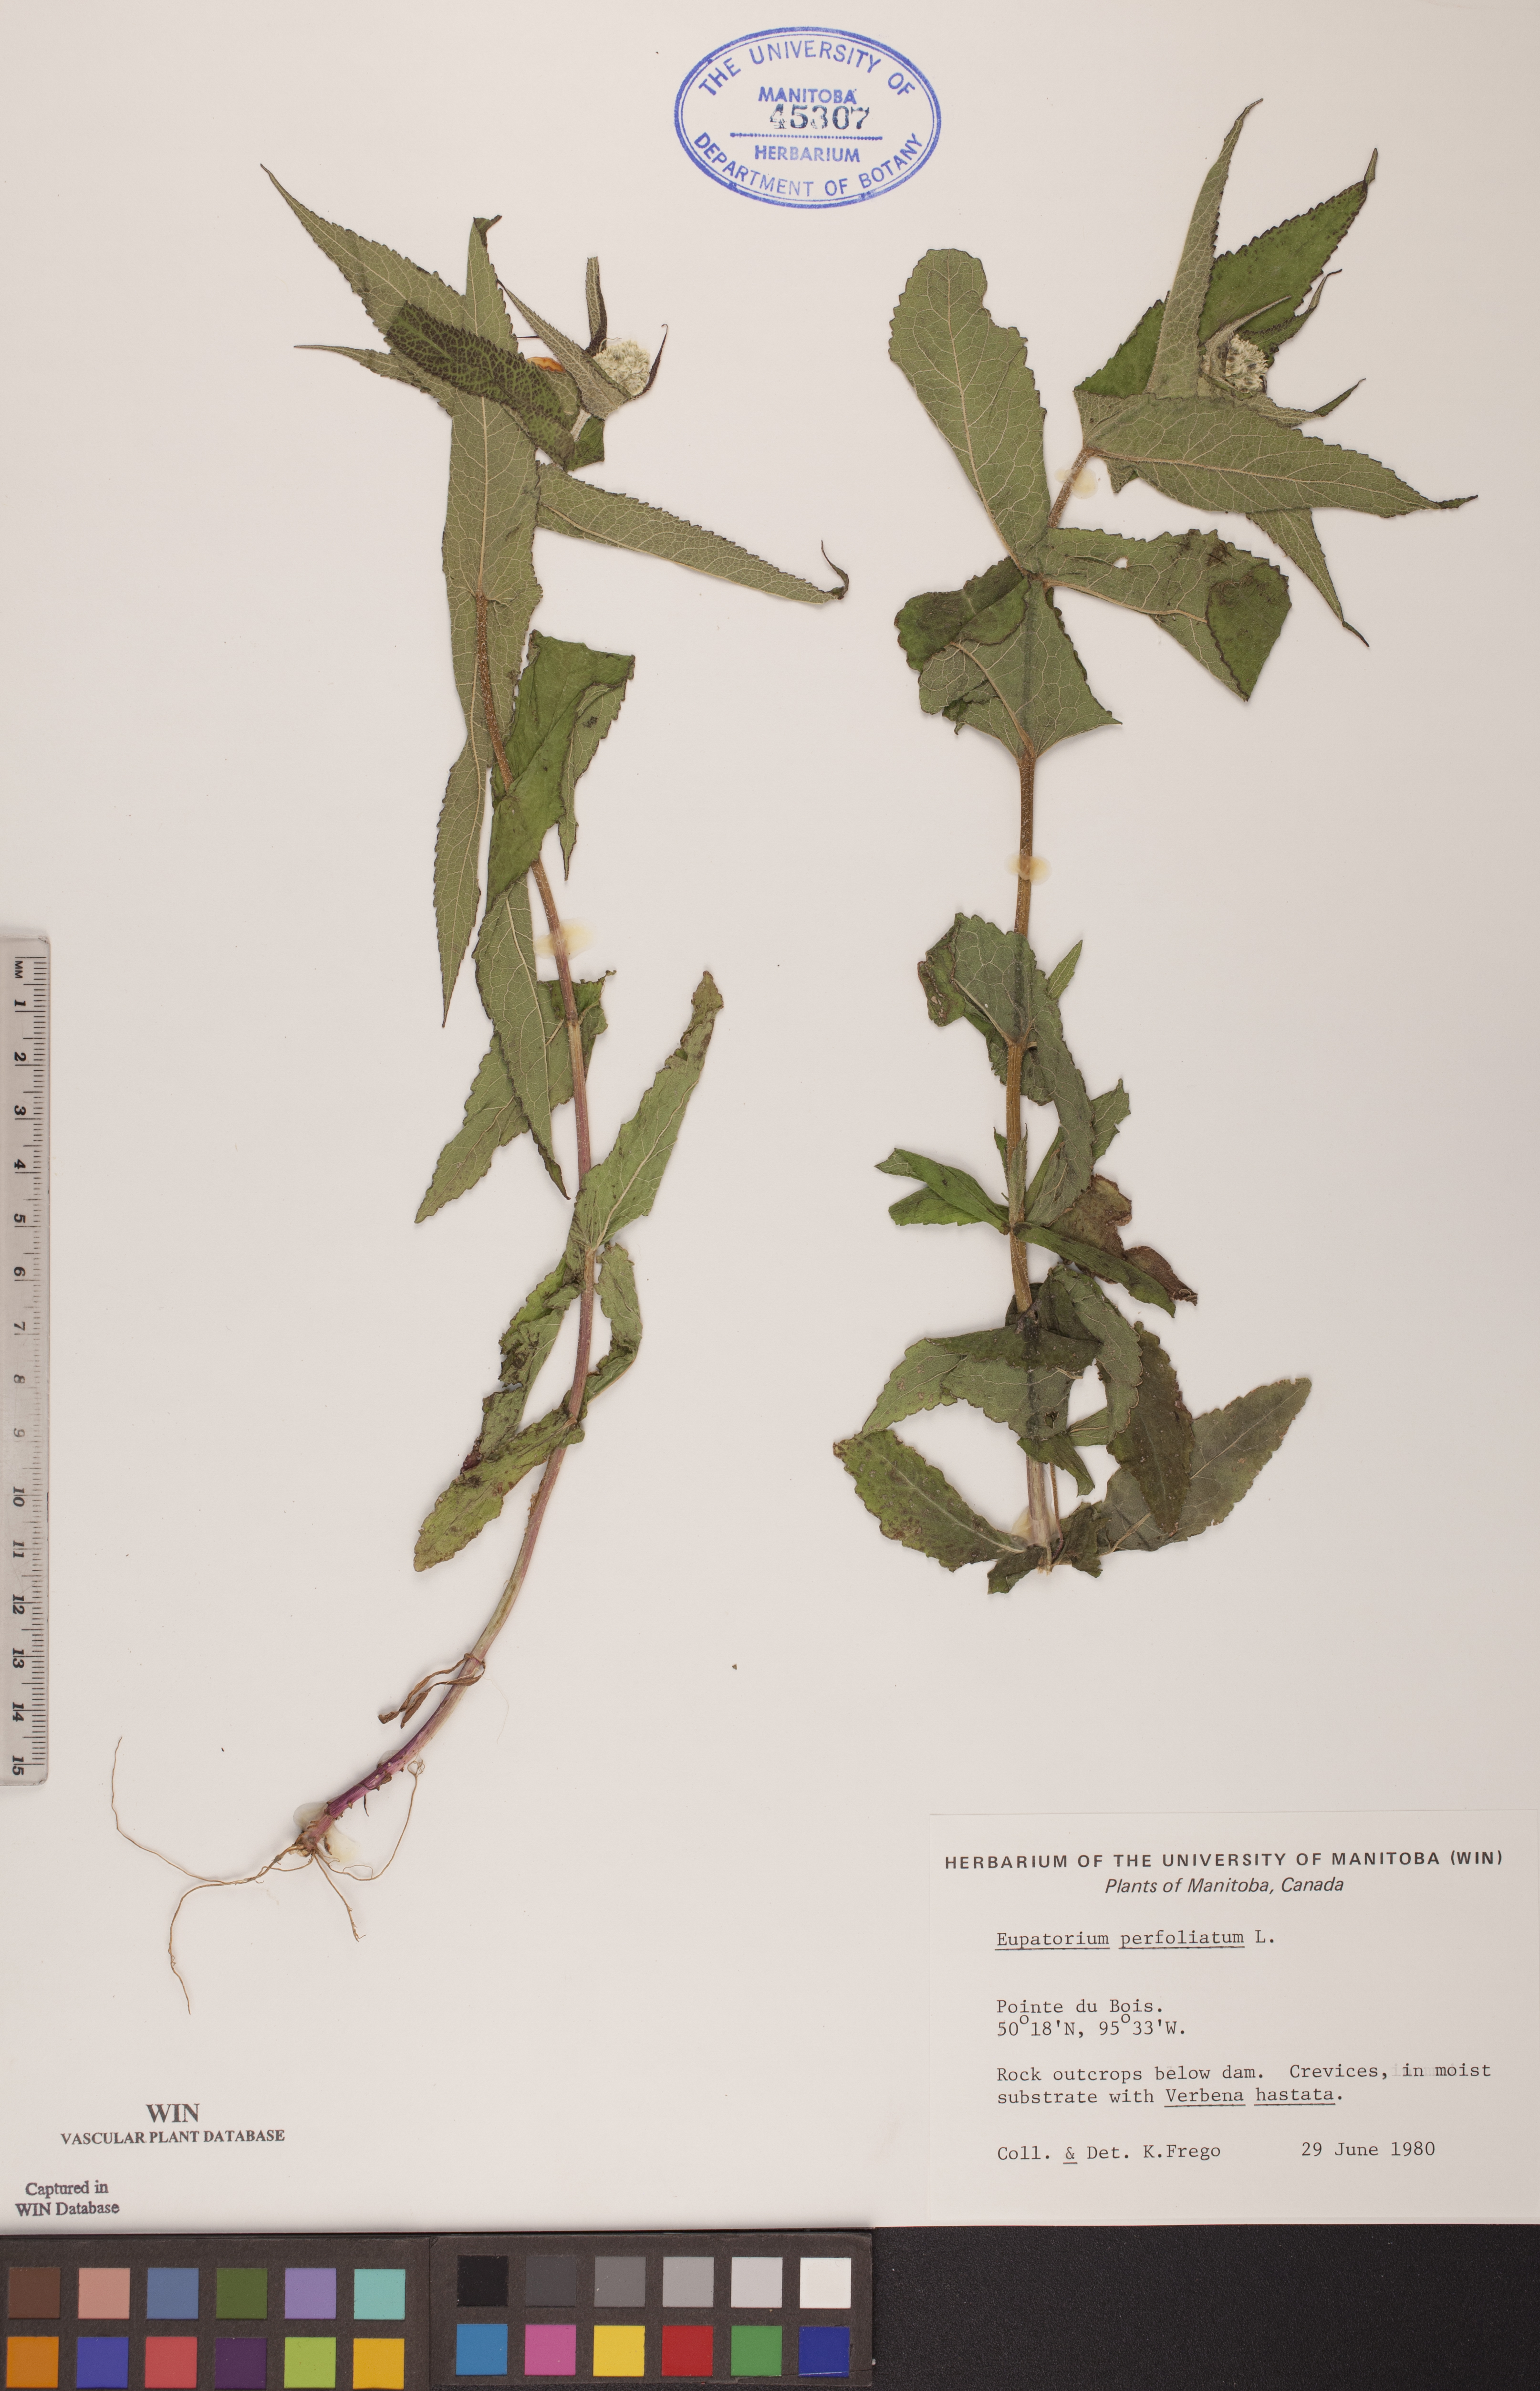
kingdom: Plantae
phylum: Tracheophyta
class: Magnoliopsida
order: Asterales
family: Asteraceae
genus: Eupatorium
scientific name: Eupatorium perfoliatum
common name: Boneset
